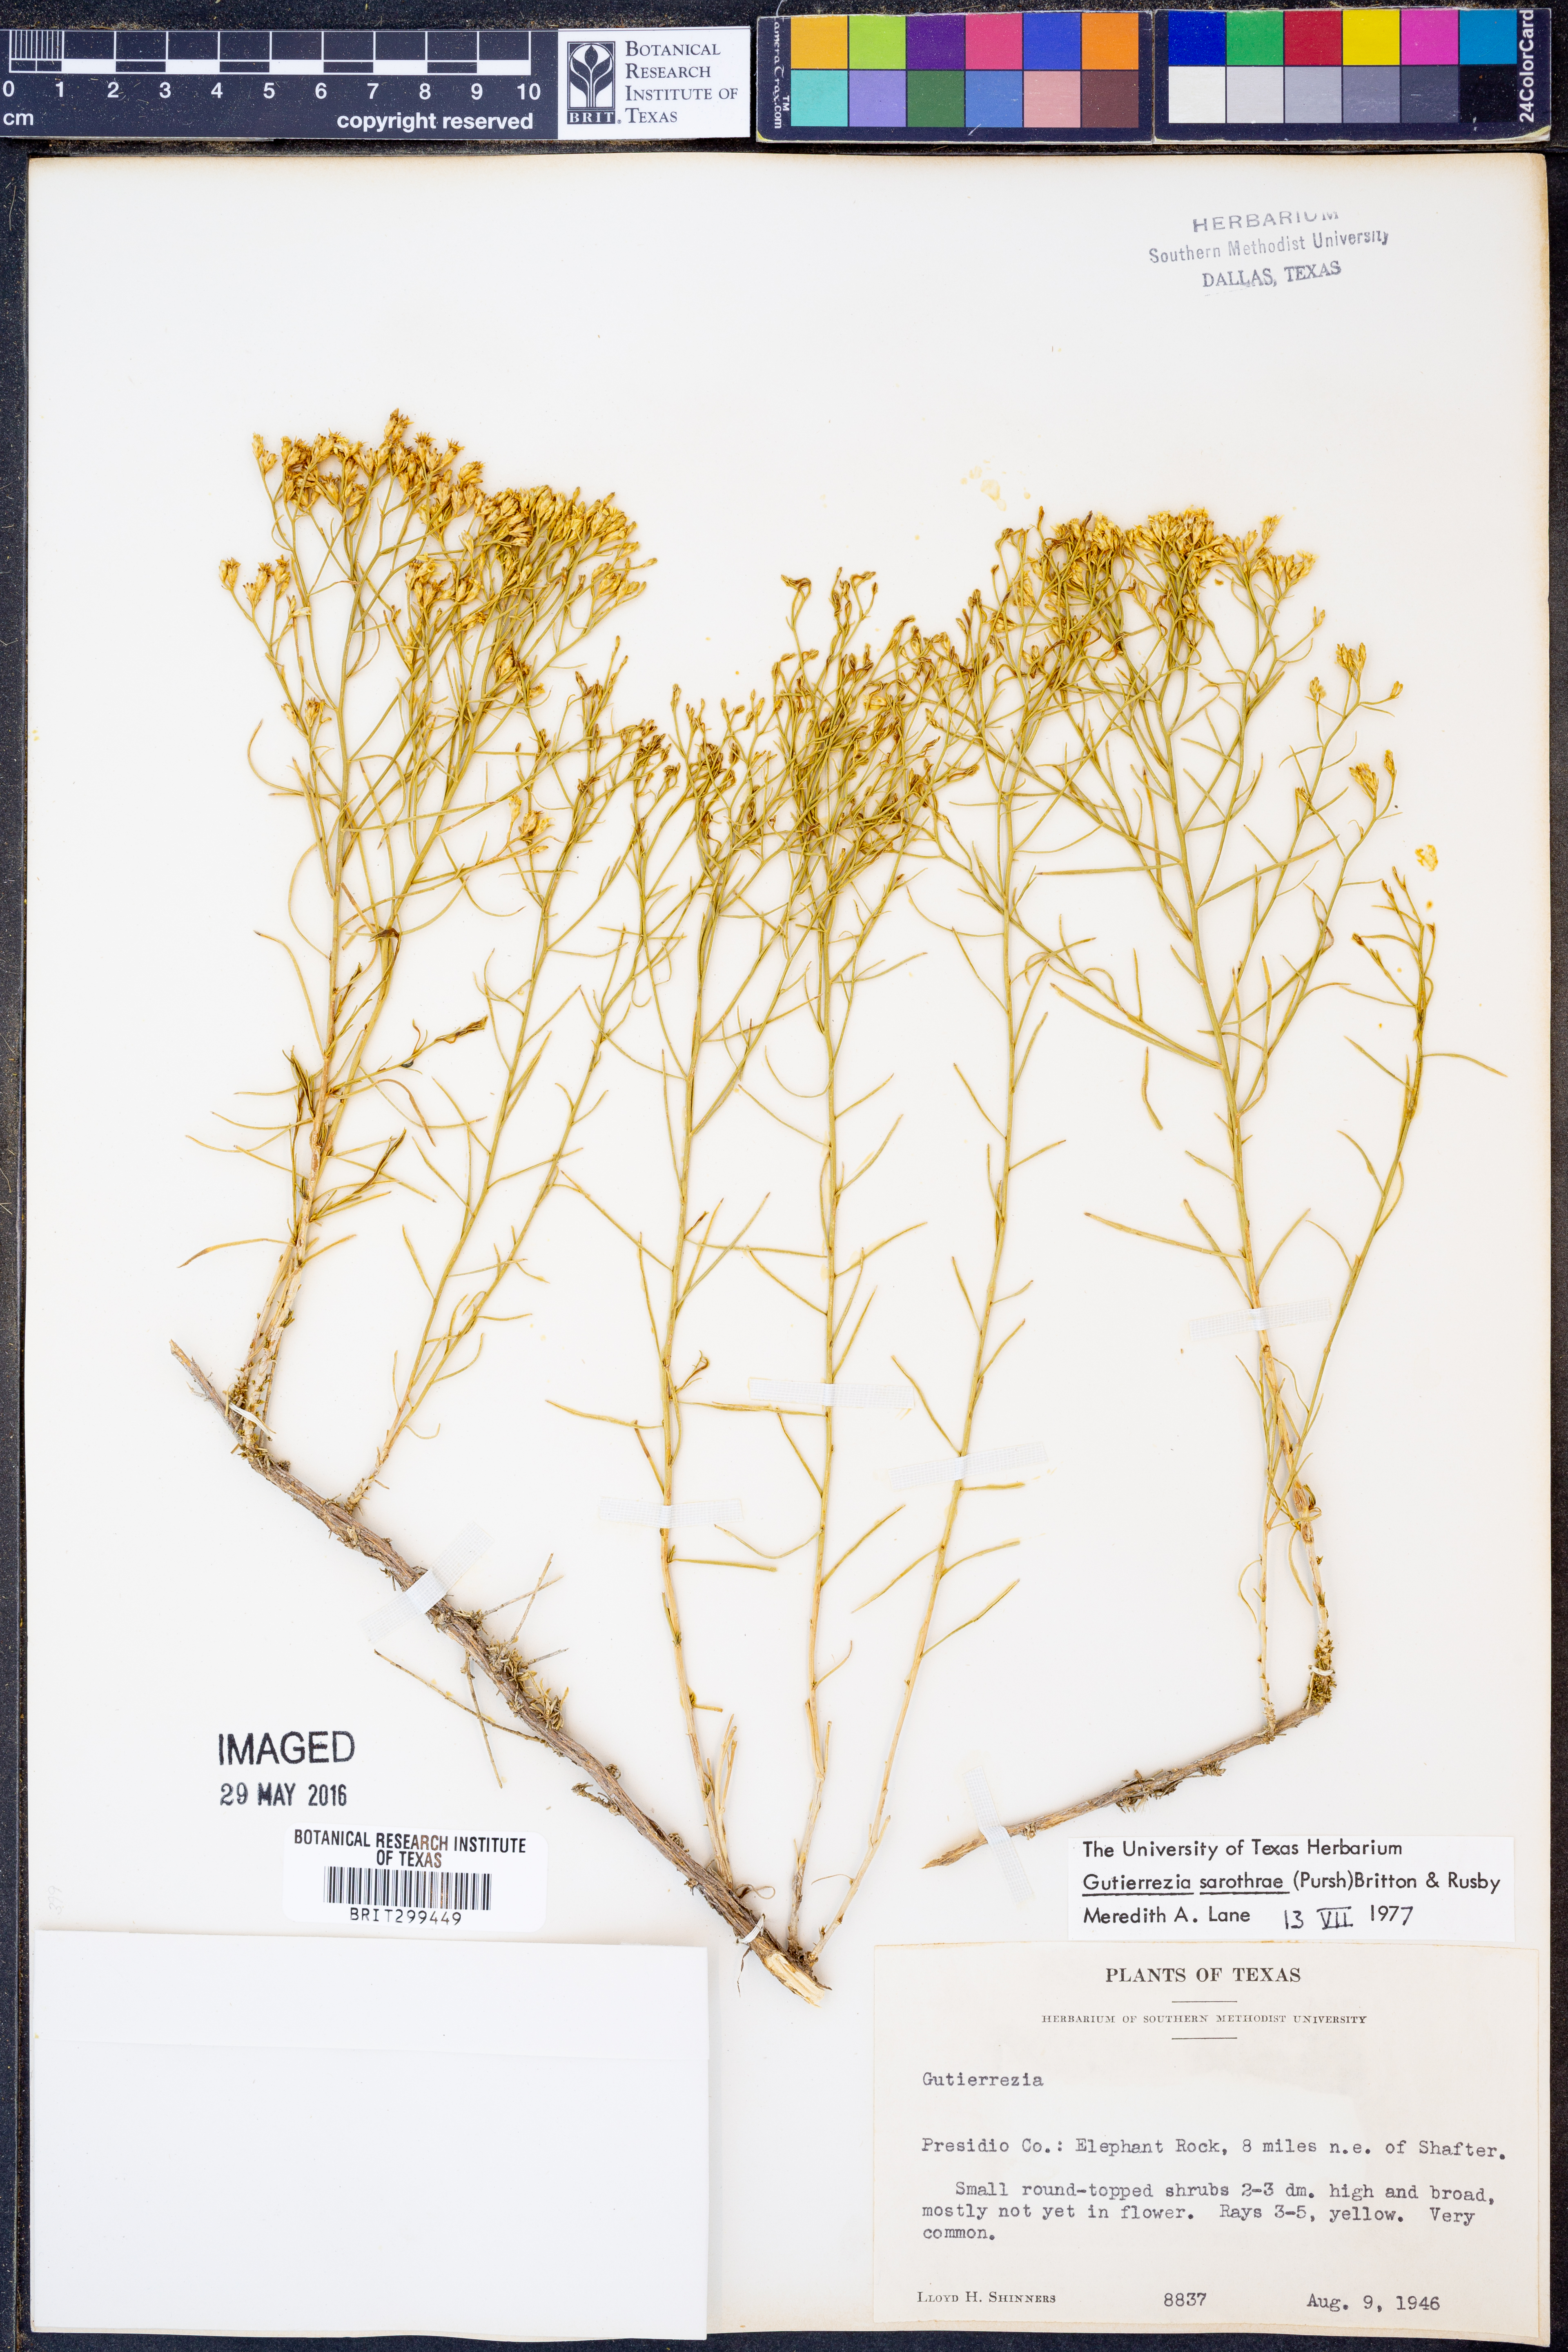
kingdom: Plantae
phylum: Tracheophyta
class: Magnoliopsida
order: Asterales
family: Asteraceae
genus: Gutierrezia
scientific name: Gutierrezia sarothrae
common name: Broom snakeweed
